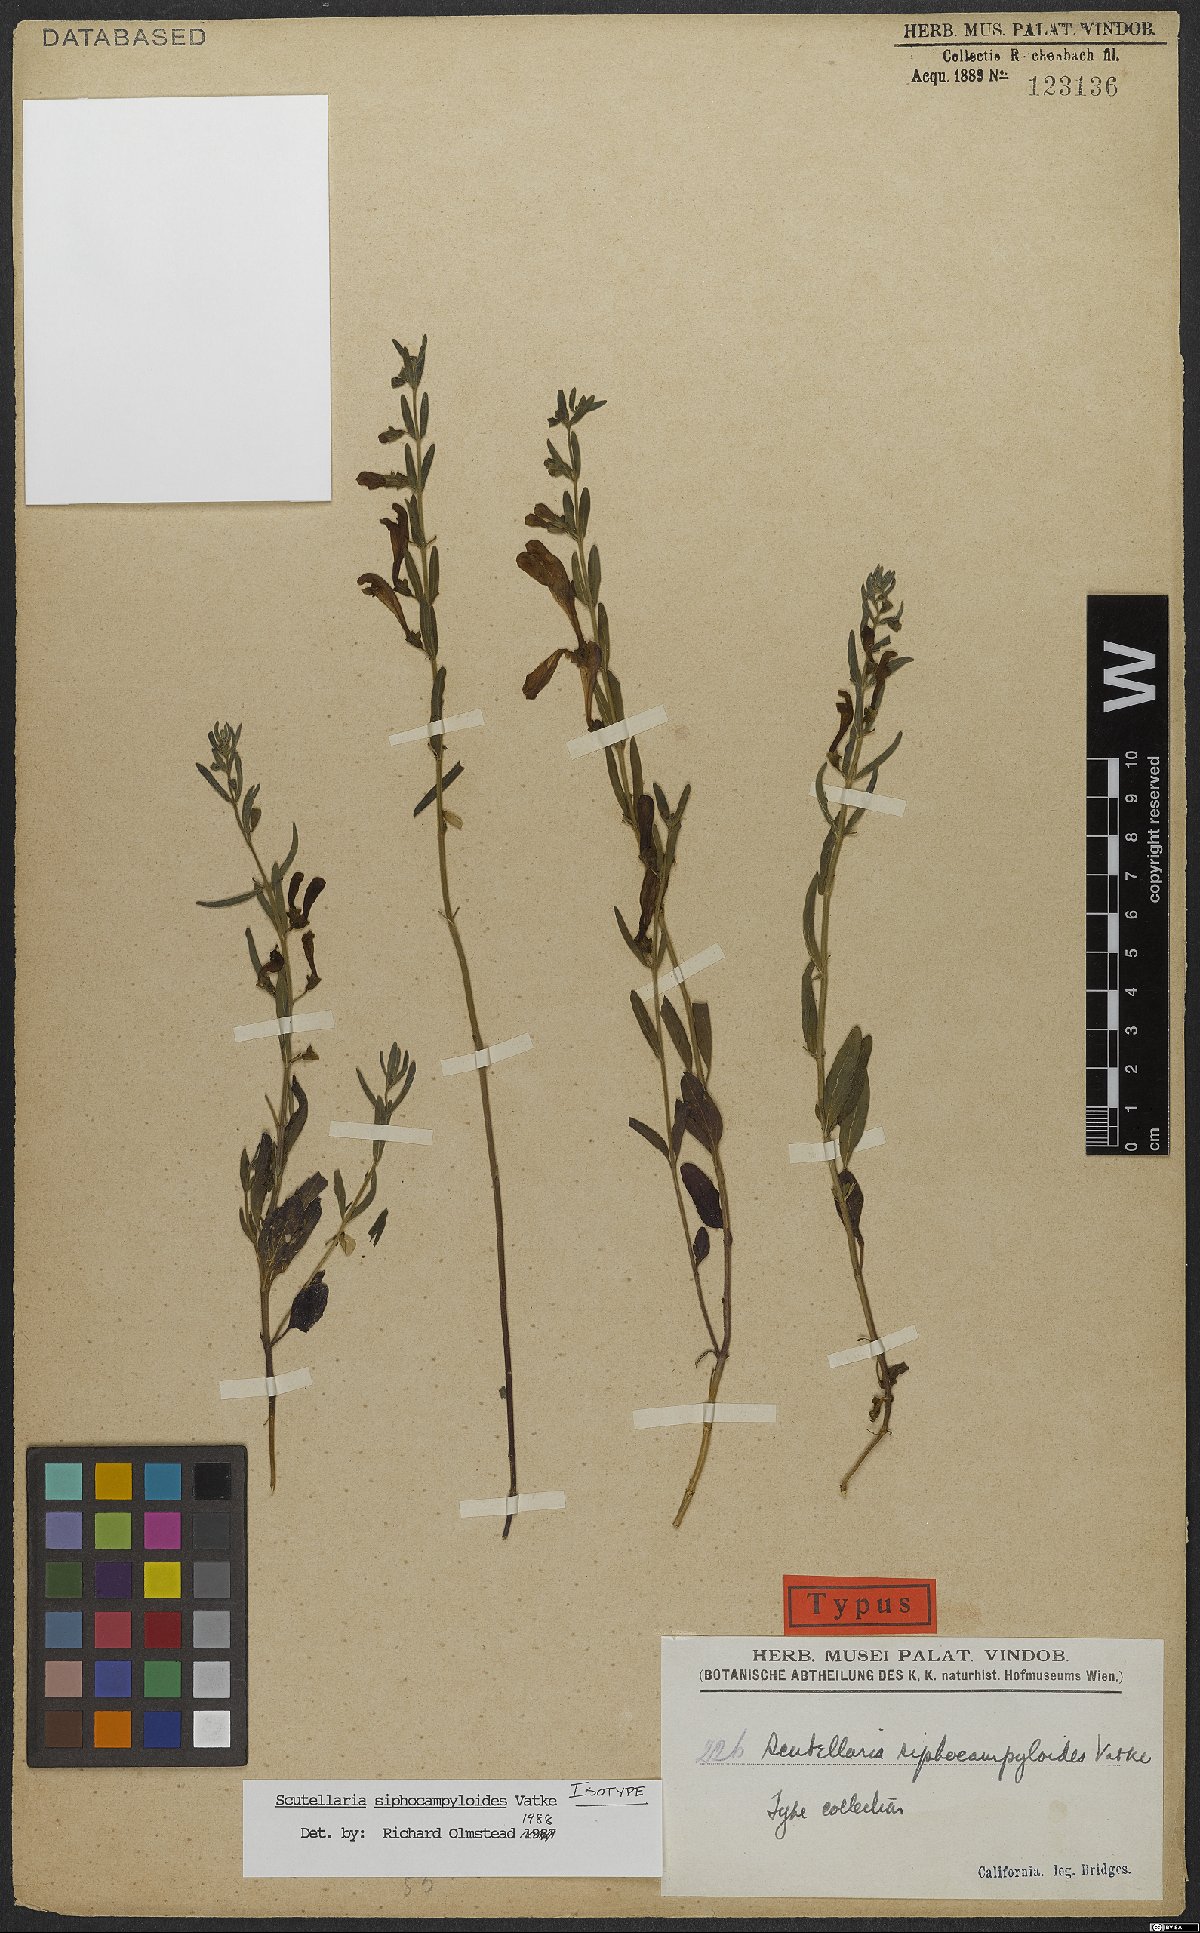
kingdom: Plantae
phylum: Tracheophyta
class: Magnoliopsida
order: Lamiales
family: Lamiaceae
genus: Scutellaria
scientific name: Scutellaria siphocampyloides
